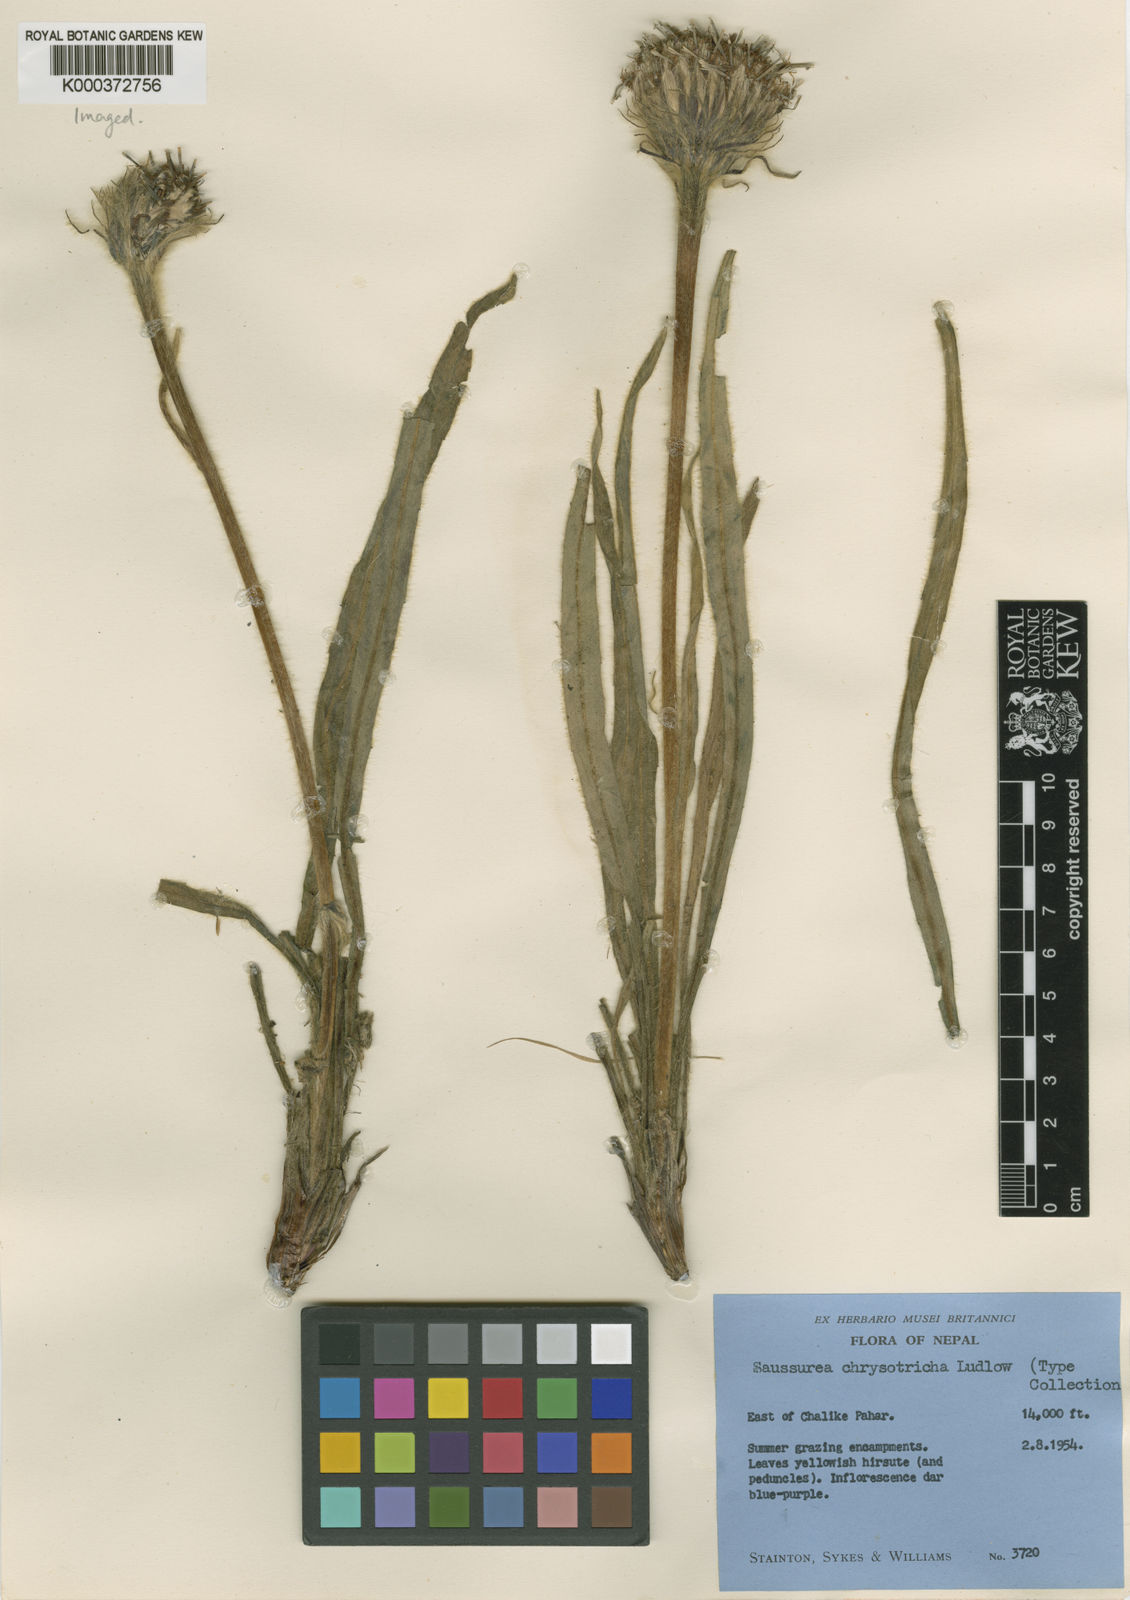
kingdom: Plantae
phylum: Tracheophyta
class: Magnoliopsida
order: Asterales
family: Asteraceae
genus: Saussurea
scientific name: Saussurea chrysotricha
